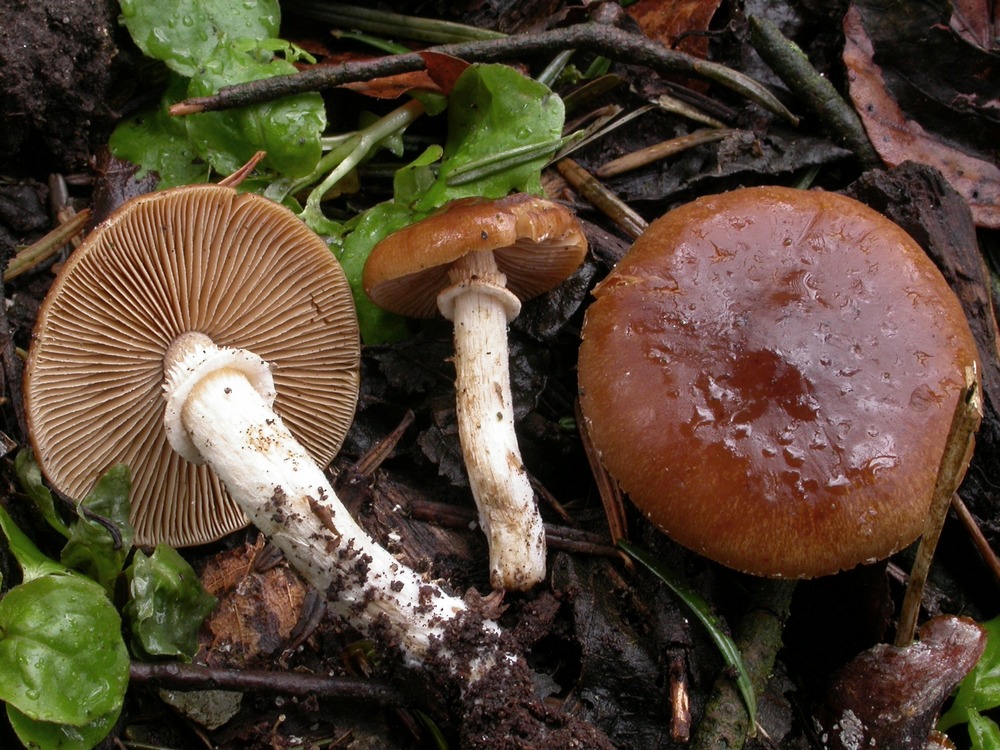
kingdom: Fungi
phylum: Basidiomycota
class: Agaricomycetes
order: Agaricales
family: Bolbitiaceae
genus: Conocybe
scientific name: Conocybe aporos
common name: tidlig dansehat
